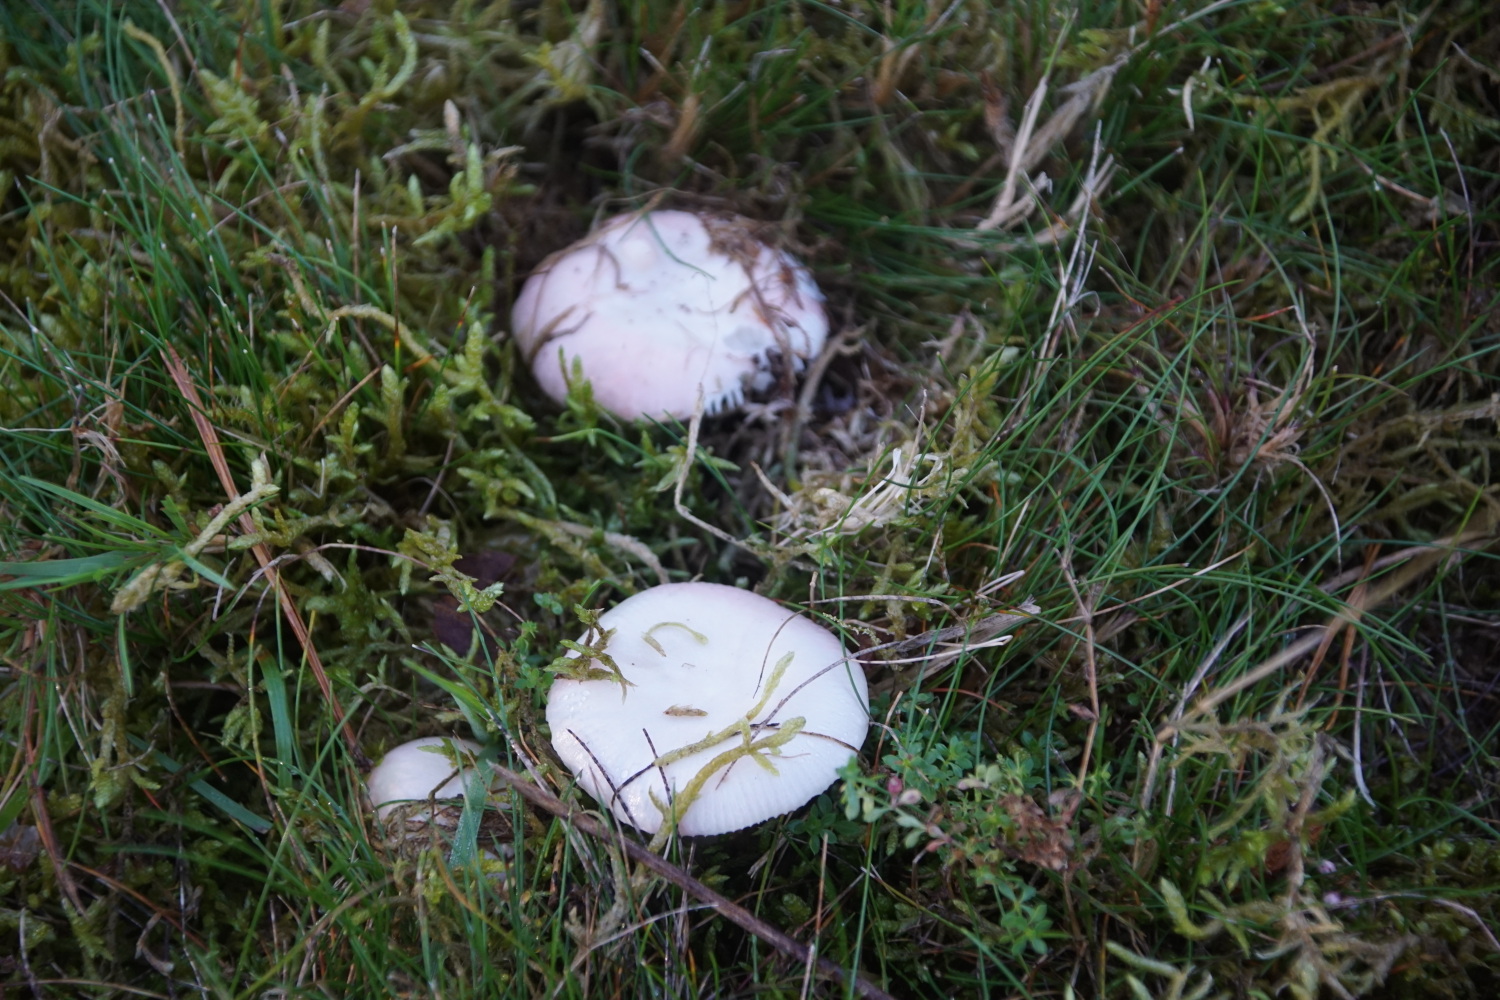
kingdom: Fungi
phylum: Basidiomycota
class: Agaricomycetes
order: Russulales
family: Russulaceae
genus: Russula
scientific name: Russula betularum
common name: bleg gift-skørhat
